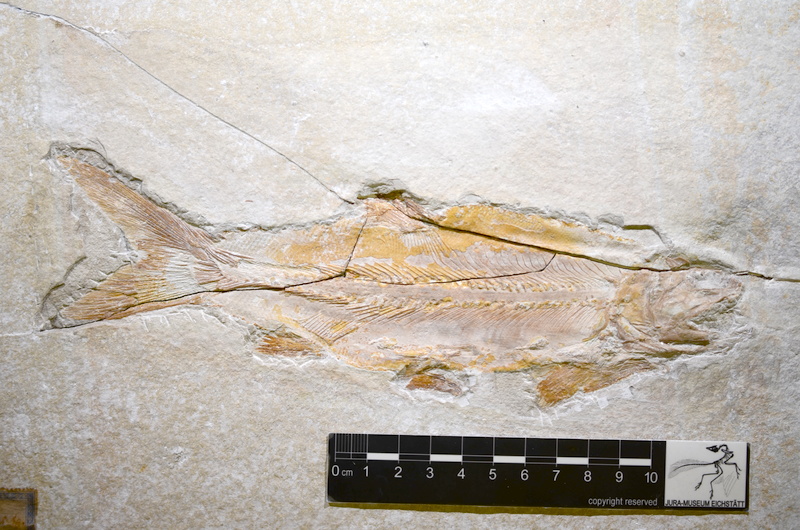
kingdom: Animalia
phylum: Chordata
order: Amiiformes
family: Caturidae
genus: Amblysemius
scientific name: Amblysemius pachyurus
